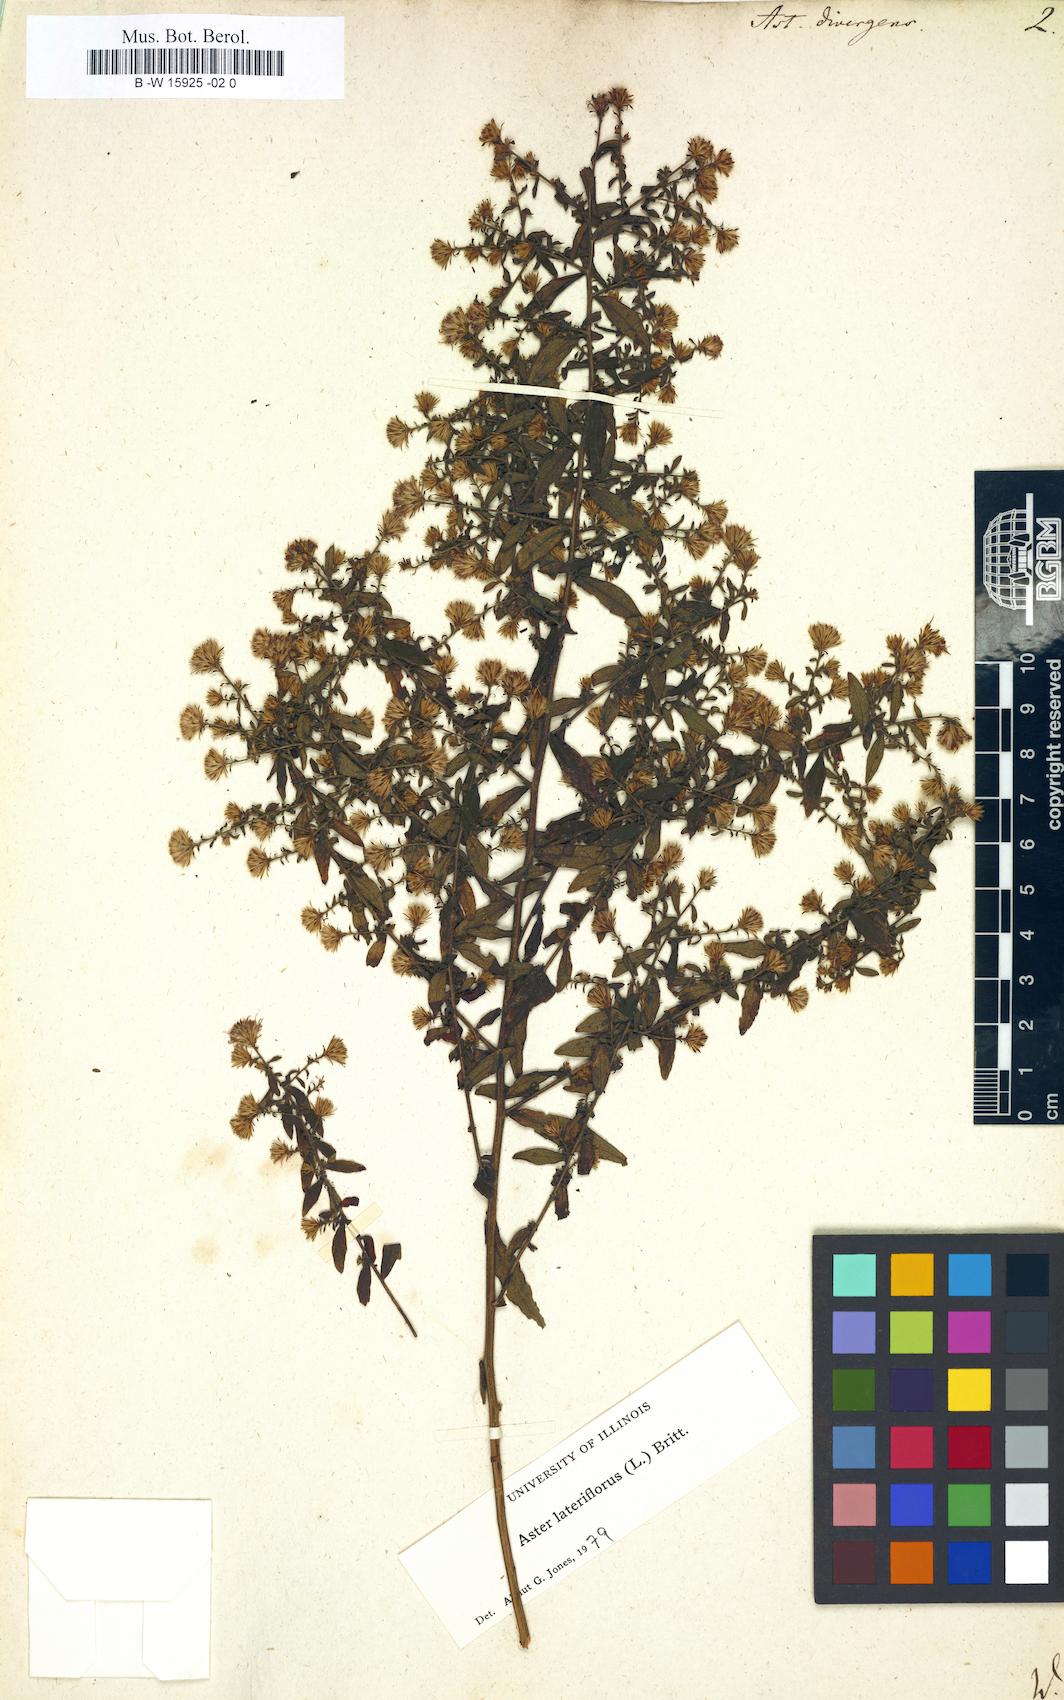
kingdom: Plantae
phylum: Tracheophyta
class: Magnoliopsida
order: Asterales
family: Asteraceae
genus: Aster
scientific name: Aster divergens
